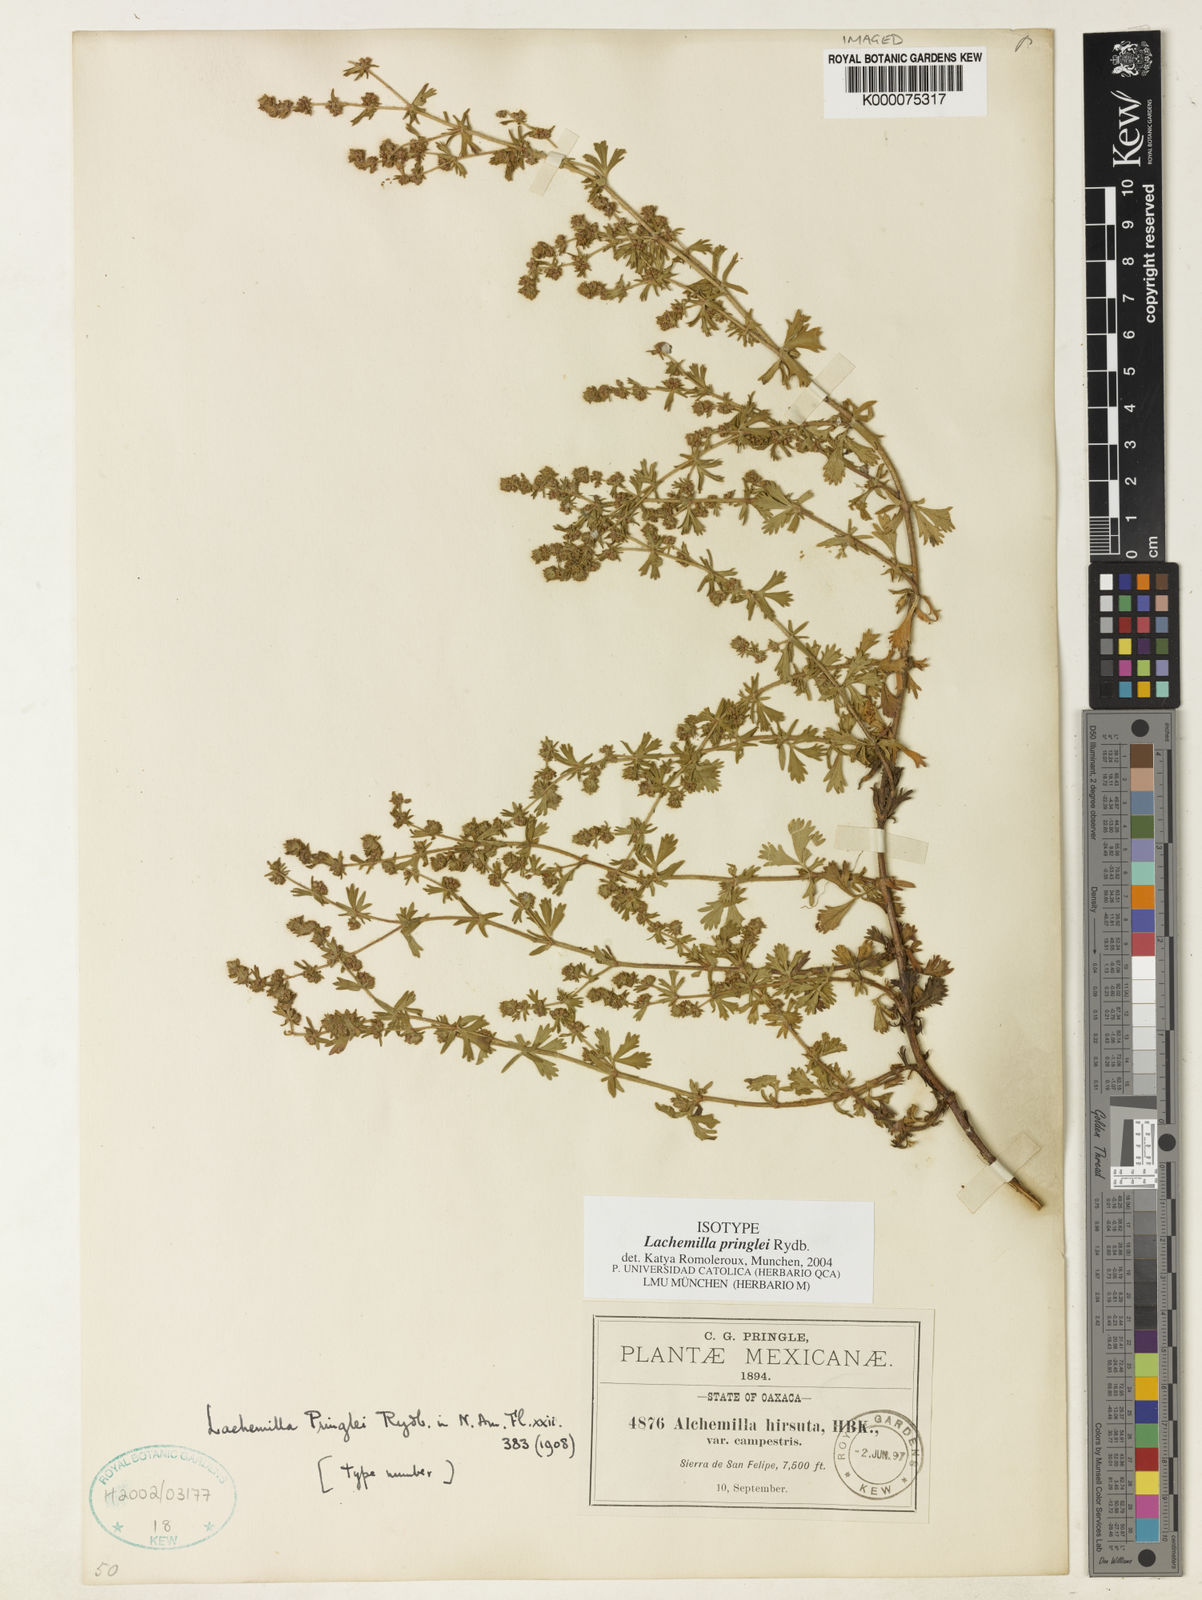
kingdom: Plantae
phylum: Tracheophyta
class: Magnoliopsida
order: Rosales
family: Rosaceae
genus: Lachemilla
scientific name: Lachemilla sibbaldiifolia
